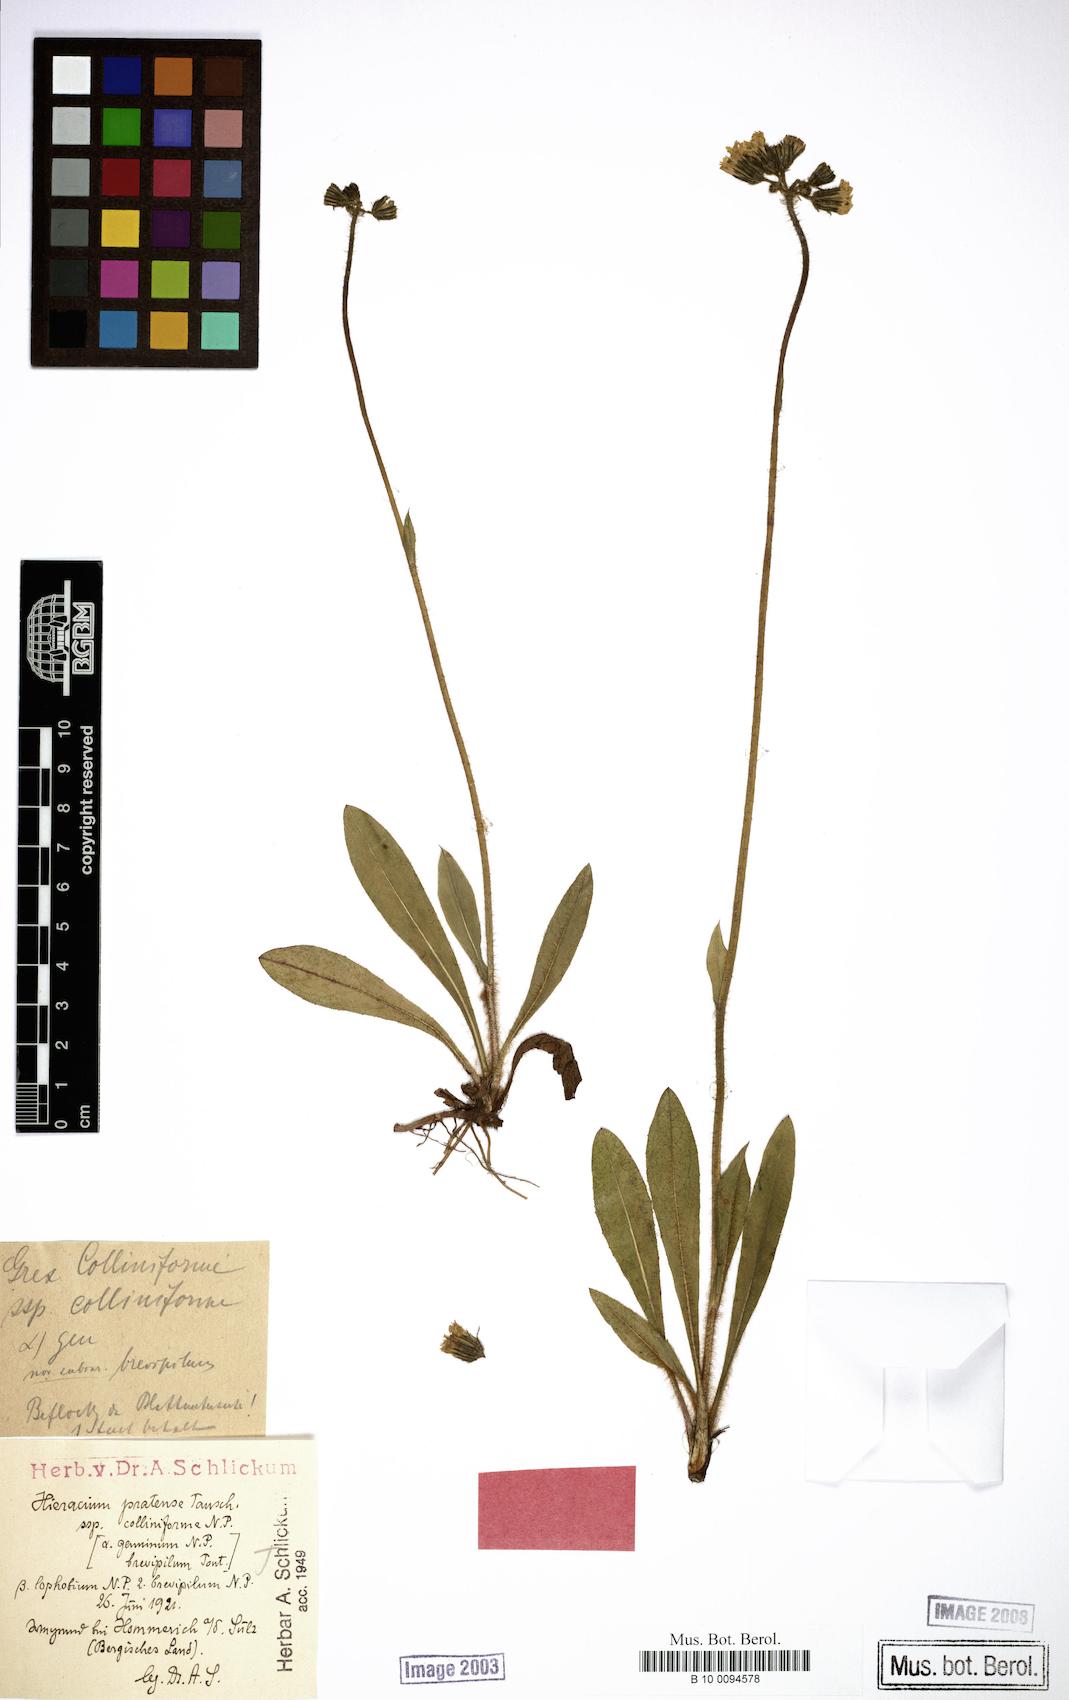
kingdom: Plantae
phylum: Tracheophyta
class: Magnoliopsida
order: Asterales
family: Asteraceae
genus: Pilosella
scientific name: Pilosella onegensis
